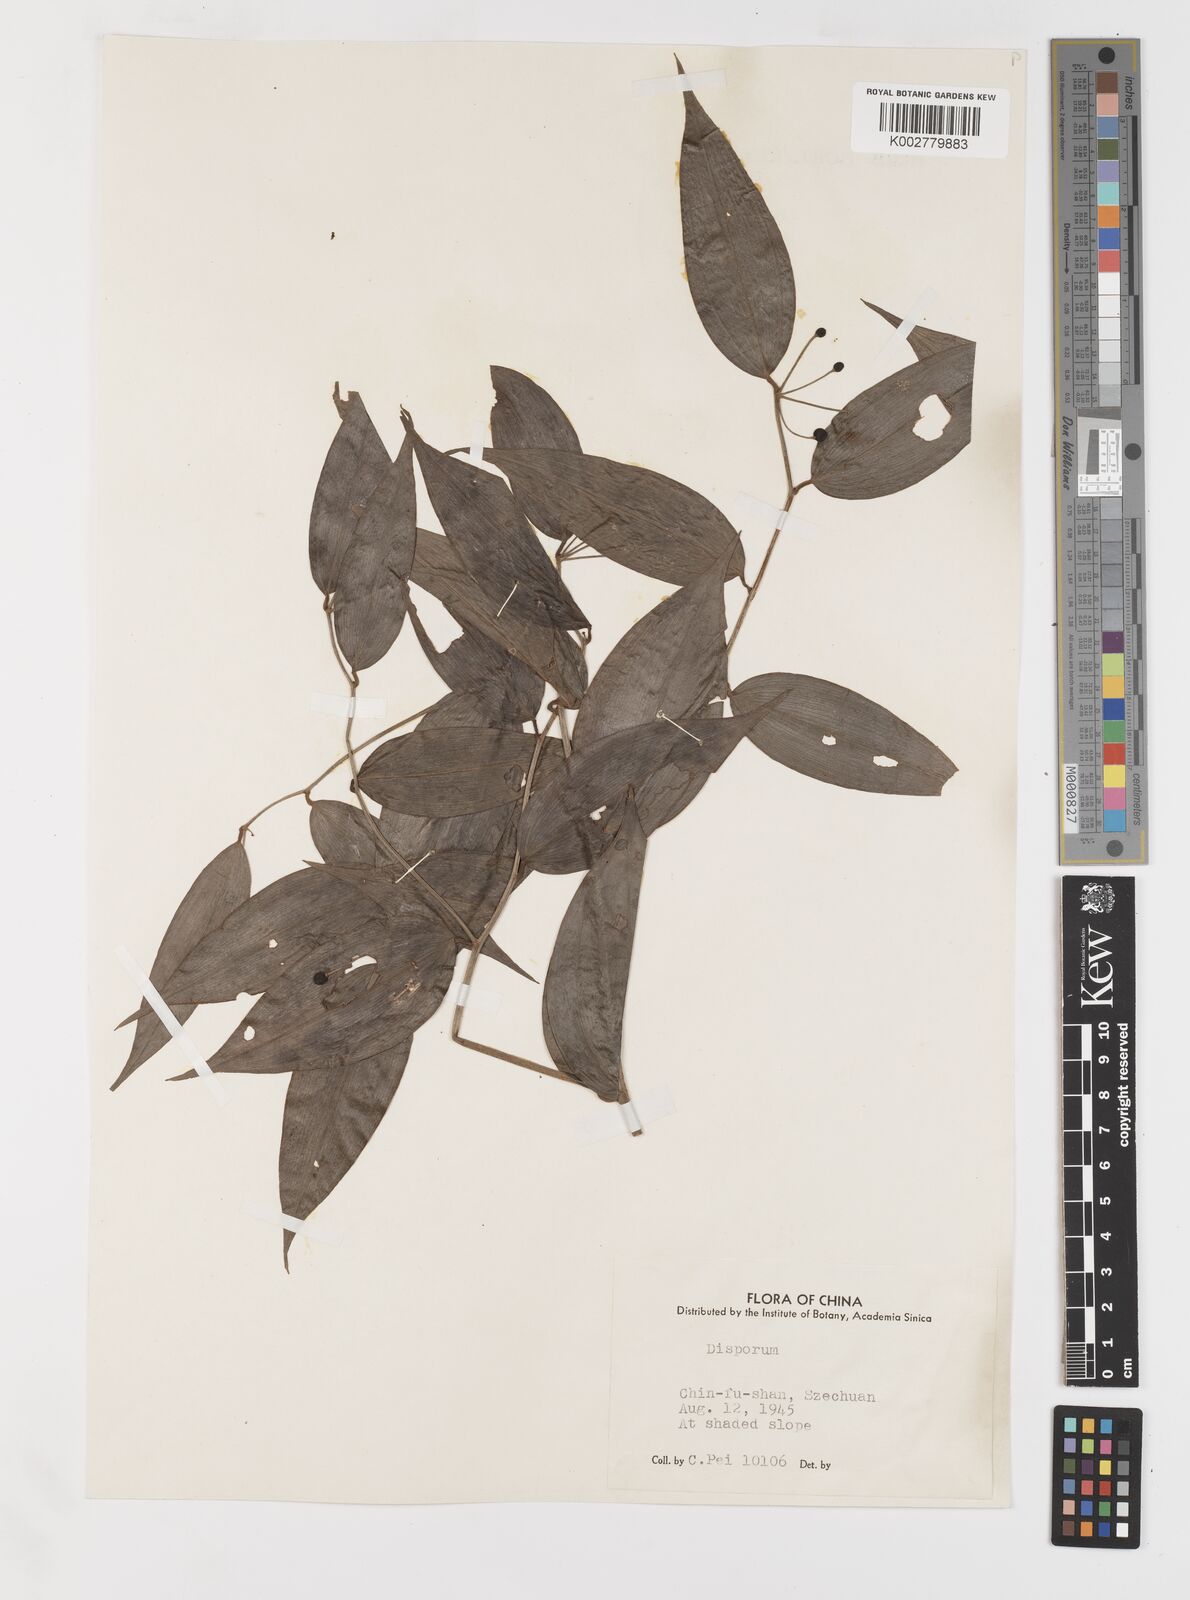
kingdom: Plantae
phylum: Tracheophyta
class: Liliopsida
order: Liliales
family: Colchicaceae
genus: Disporum
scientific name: Disporum
